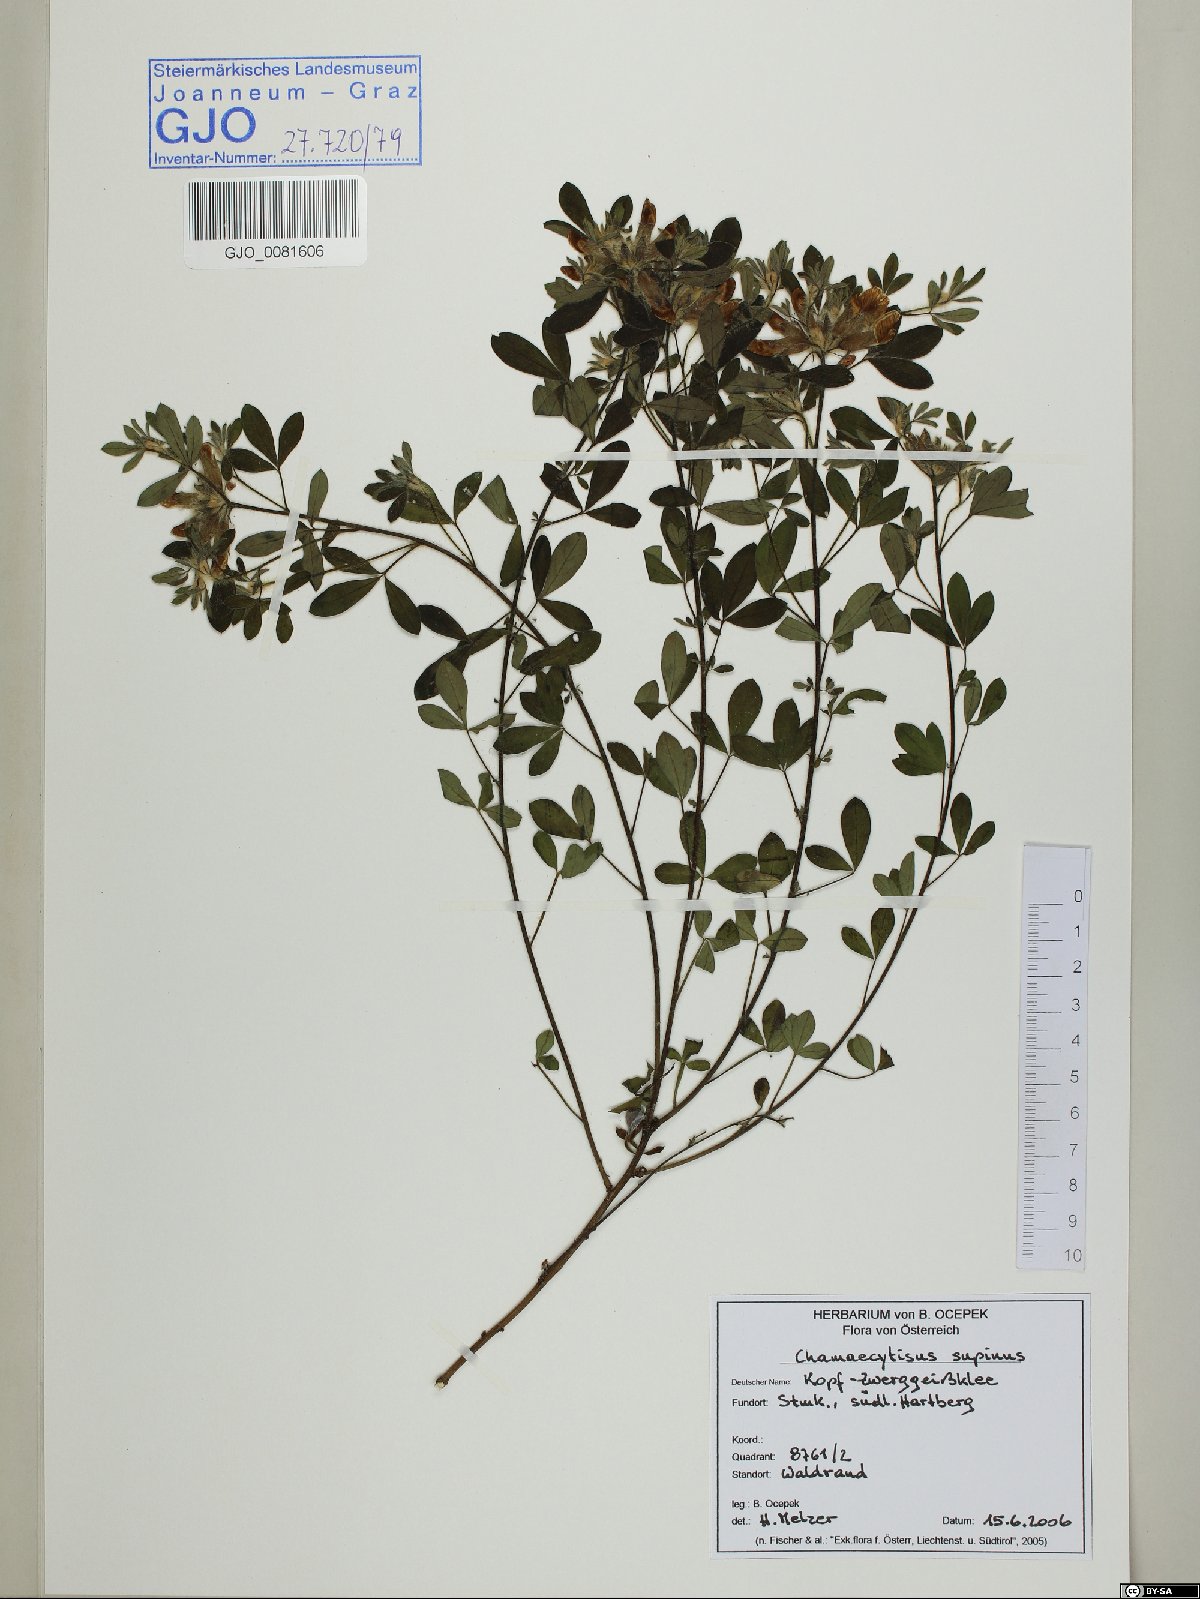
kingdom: Plantae
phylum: Tracheophyta
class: Magnoliopsida
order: Fabales
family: Fabaceae
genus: Chamaecytisus
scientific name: Chamaecytisus supinus
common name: Clustered broom
